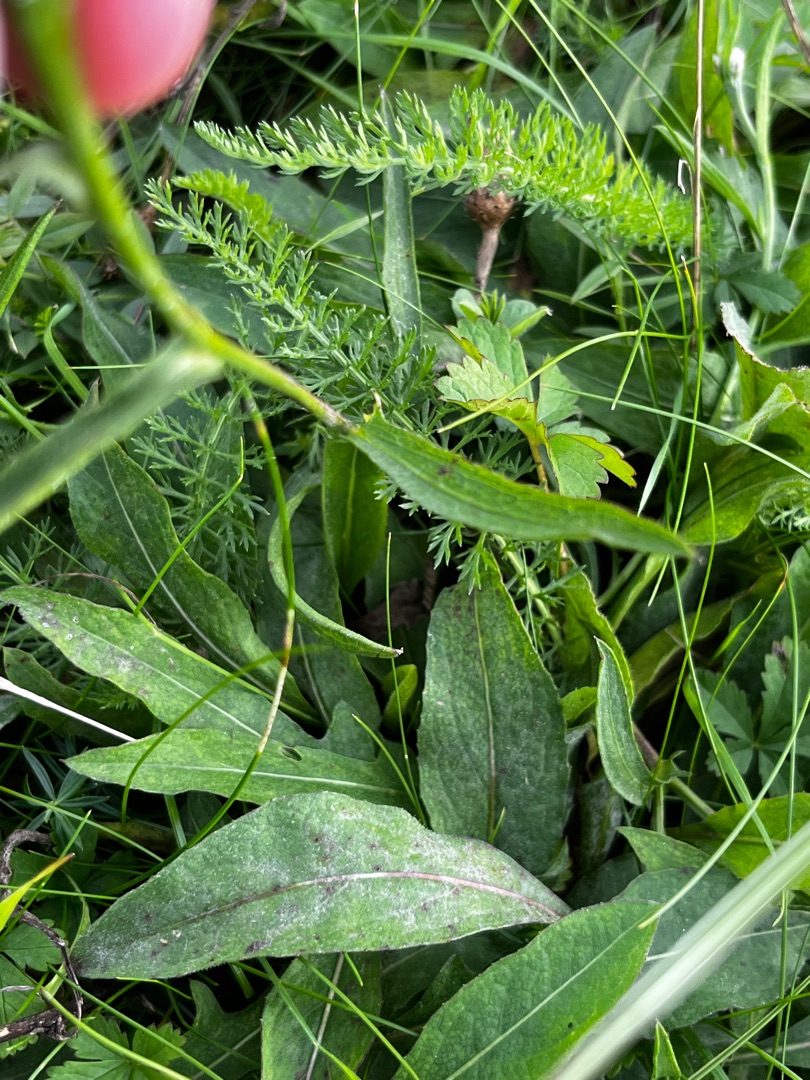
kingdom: Plantae
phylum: Tracheophyta
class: Magnoliopsida
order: Asterales
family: Asteraceae
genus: Centaurea
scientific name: Centaurea jacea
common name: Almindelig knopurt
